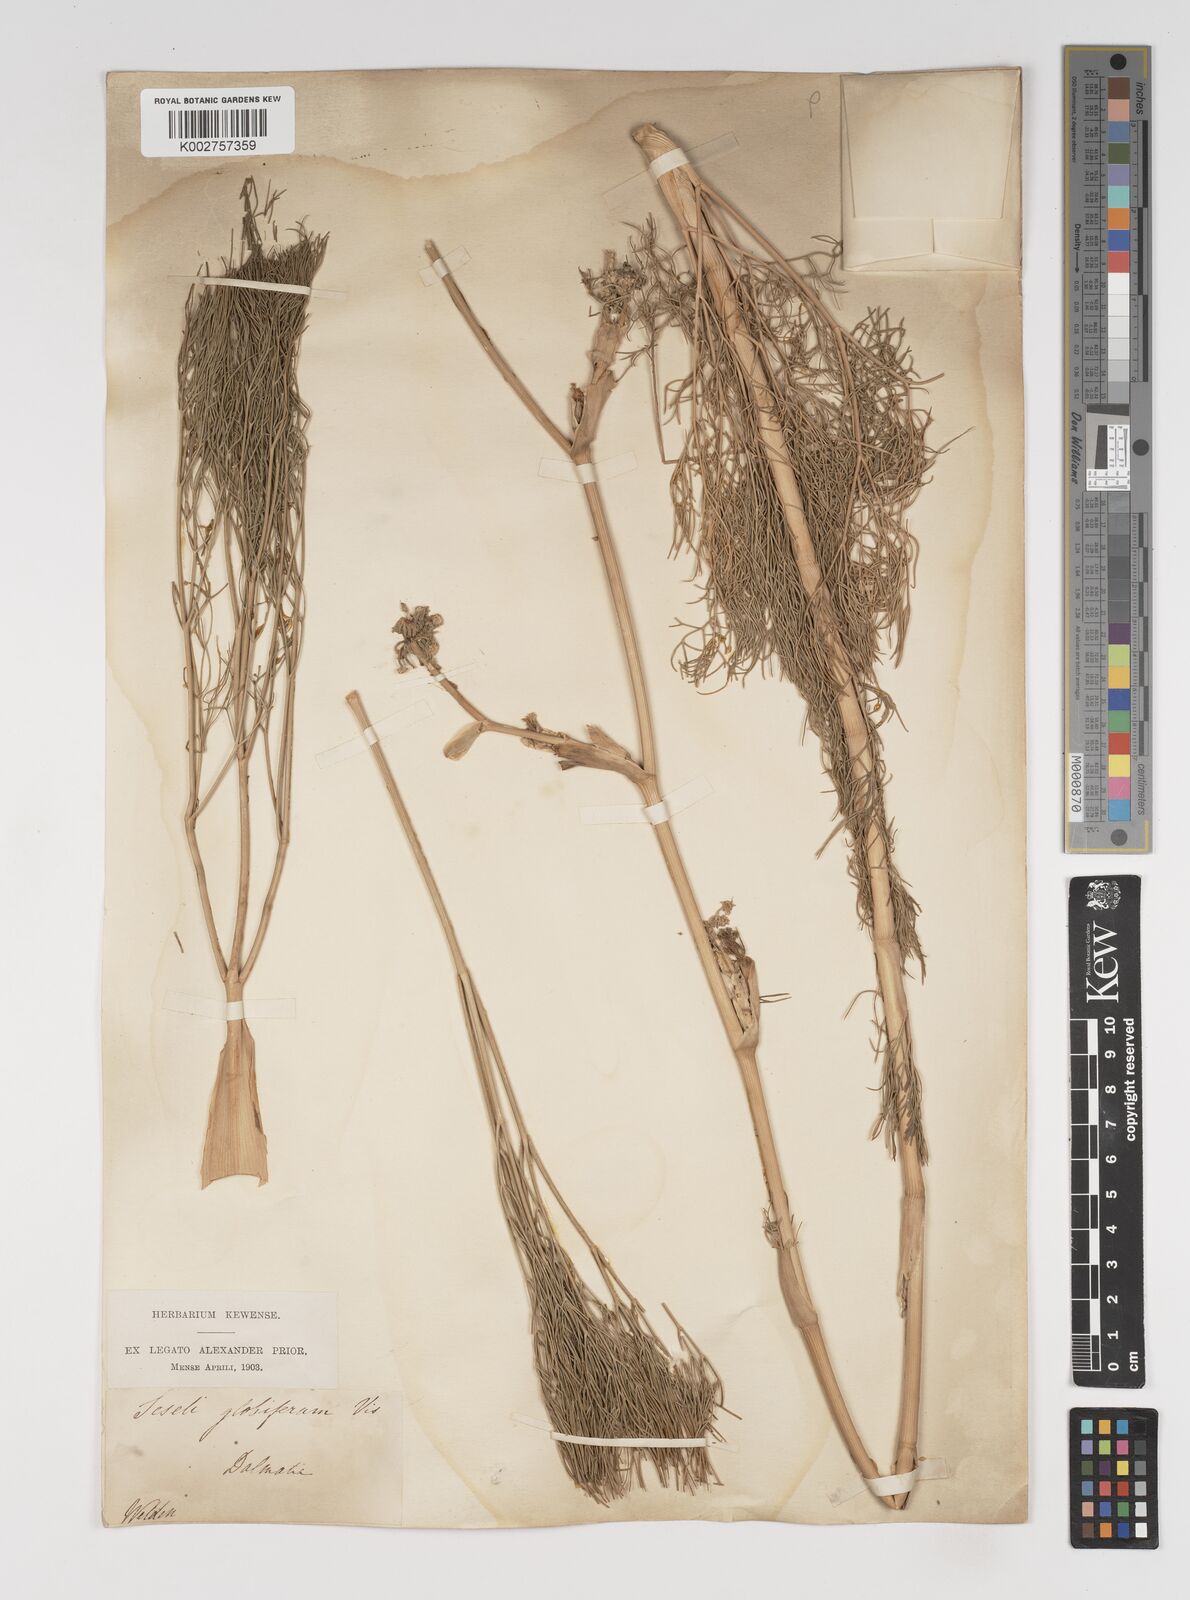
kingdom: Plantae
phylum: Tracheophyta
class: Magnoliopsida
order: Apiales
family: Apiaceae
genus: Seseli
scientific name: Seseli globiferum
